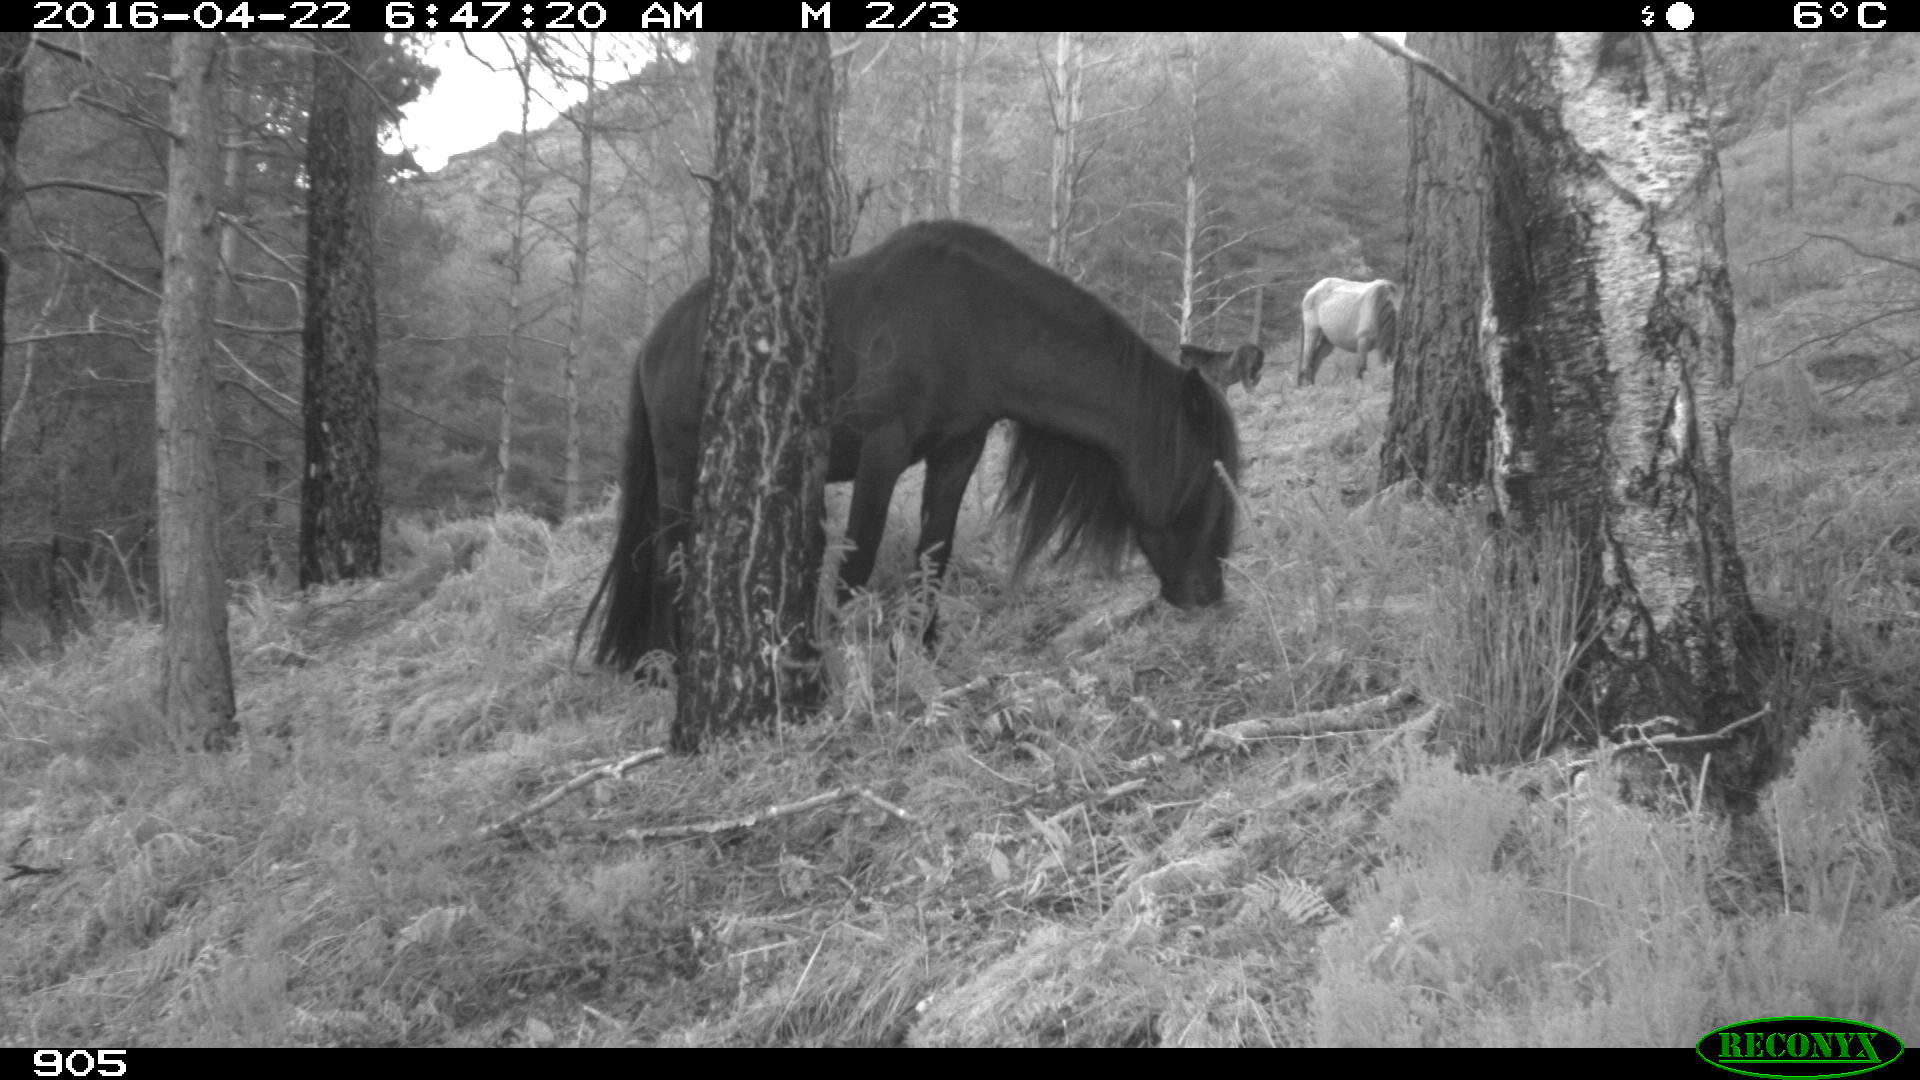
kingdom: Animalia
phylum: Chordata
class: Mammalia
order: Perissodactyla
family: Equidae
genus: Equus
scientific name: Equus caballus
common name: Horse
